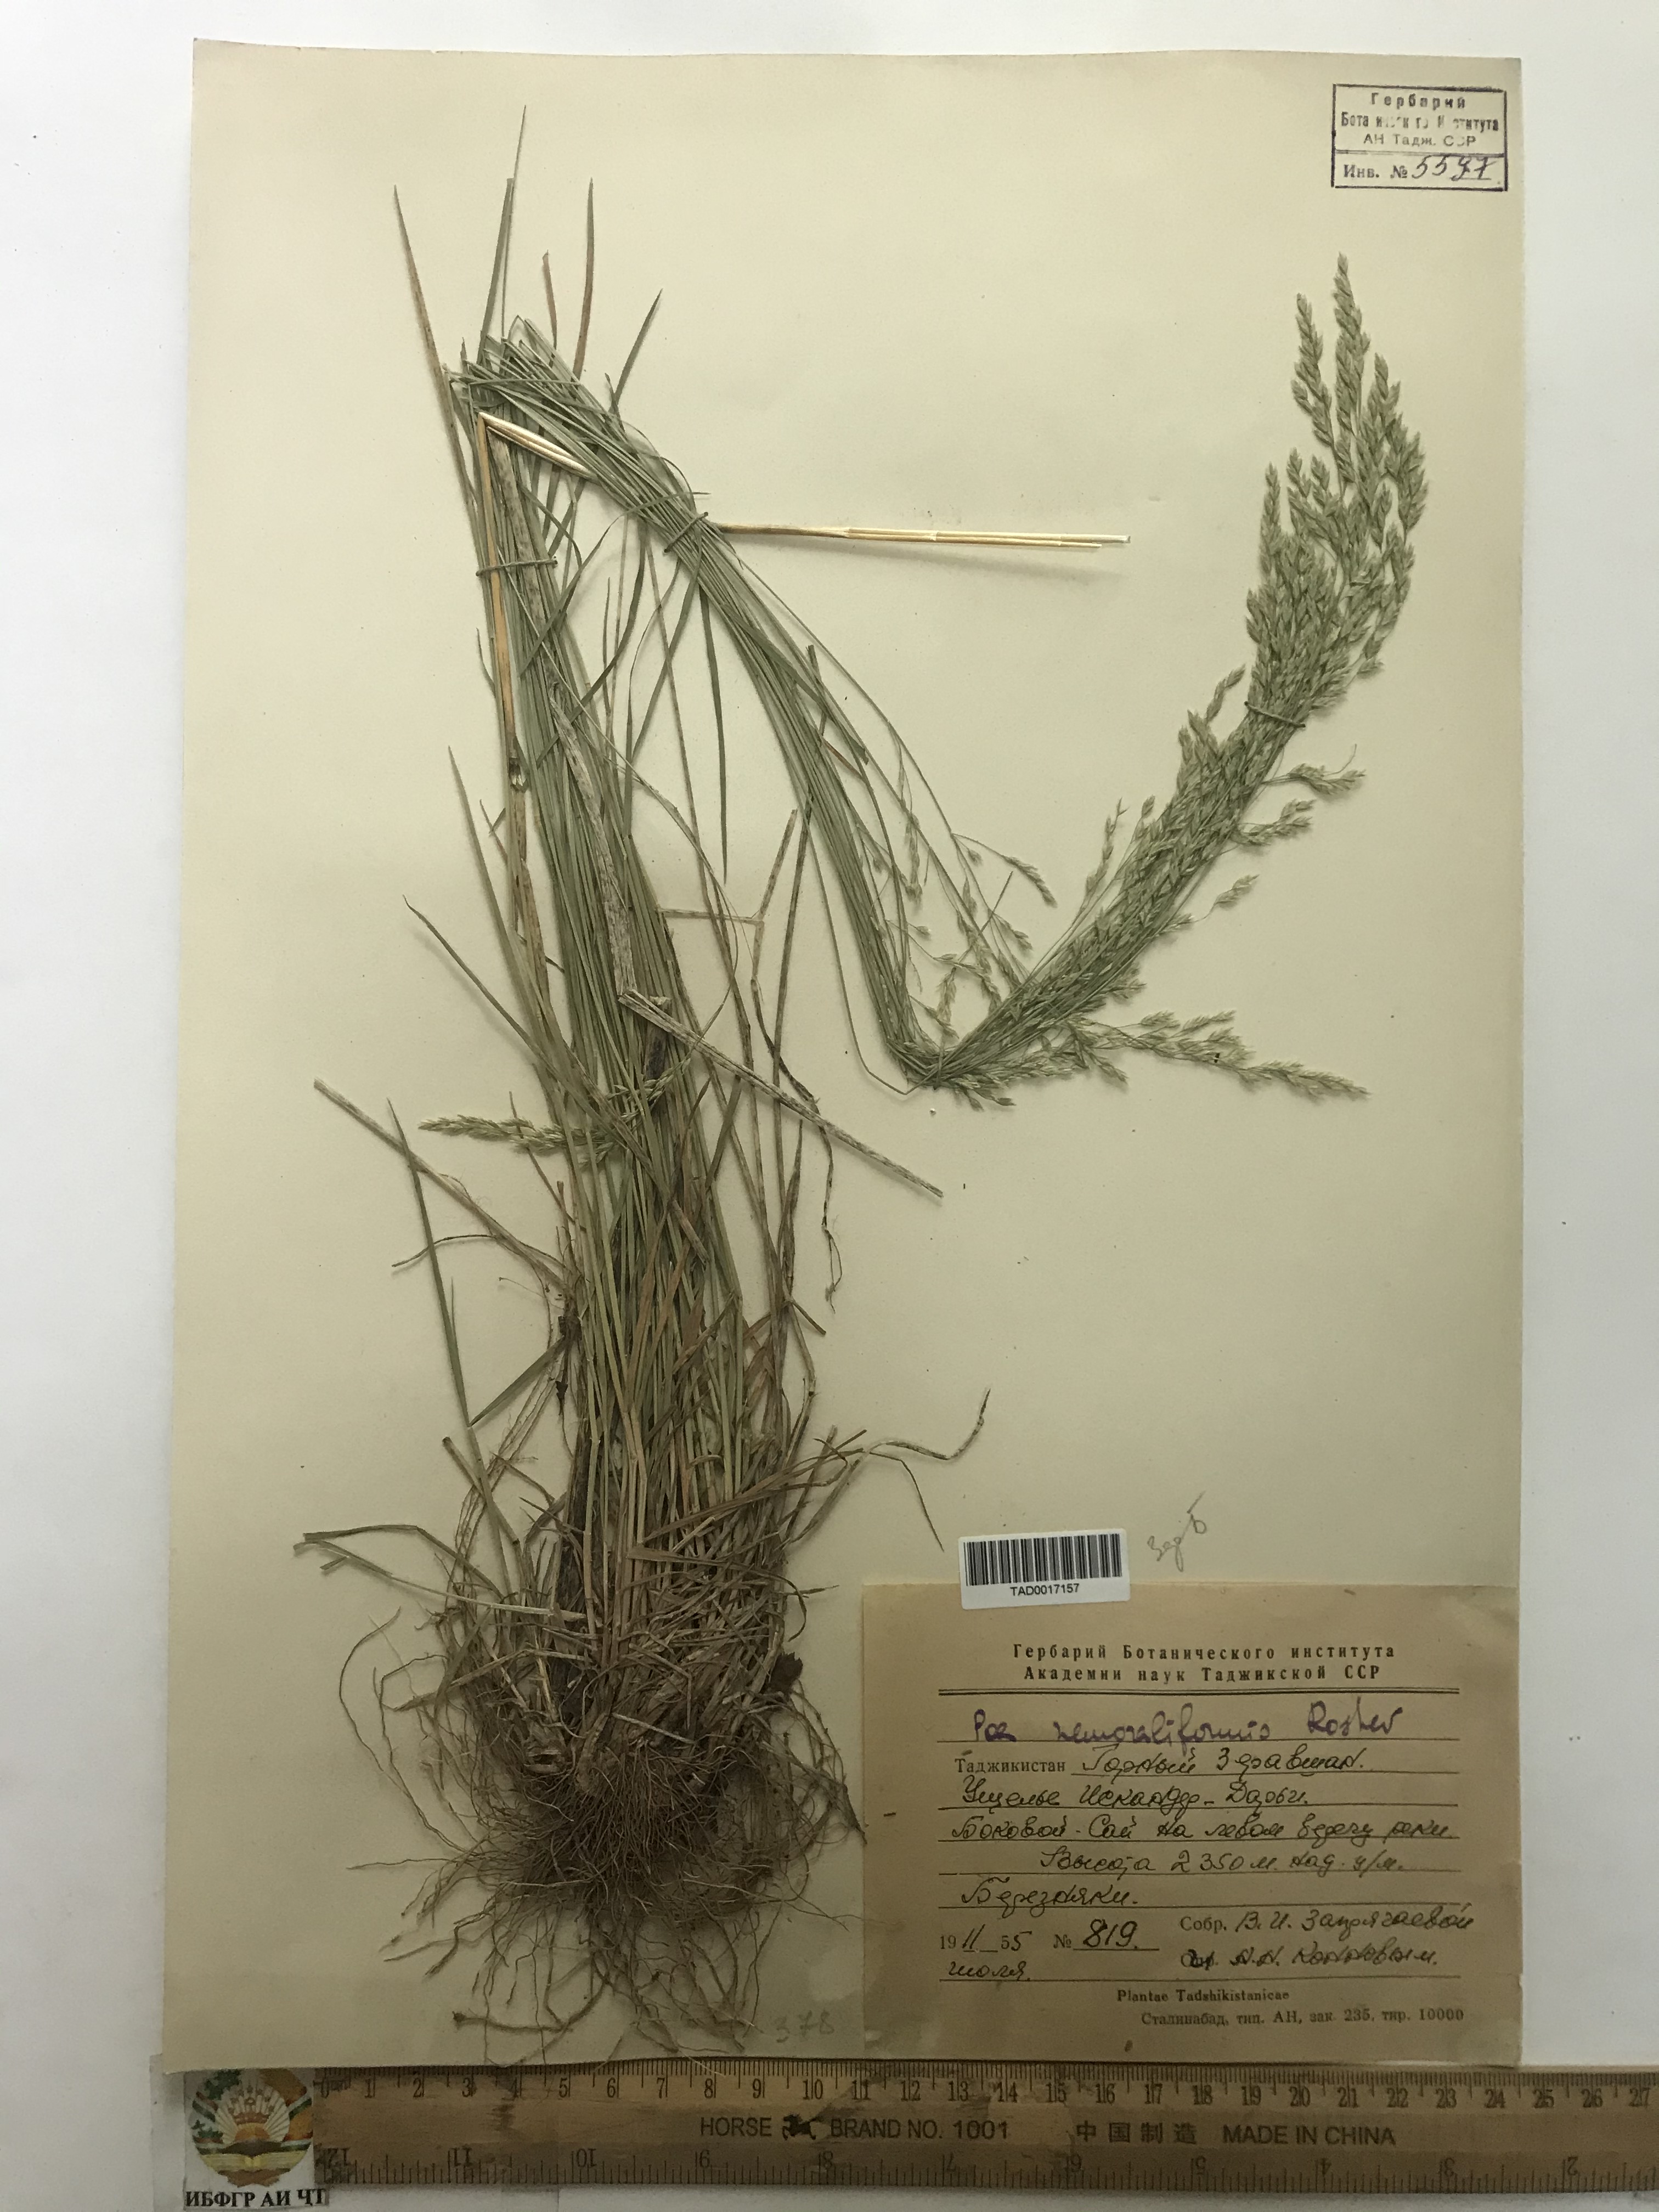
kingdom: Plantae
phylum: Tracheophyta
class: Liliopsida
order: Poales
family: Poaceae
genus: Poa
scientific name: Poa urssulensis
